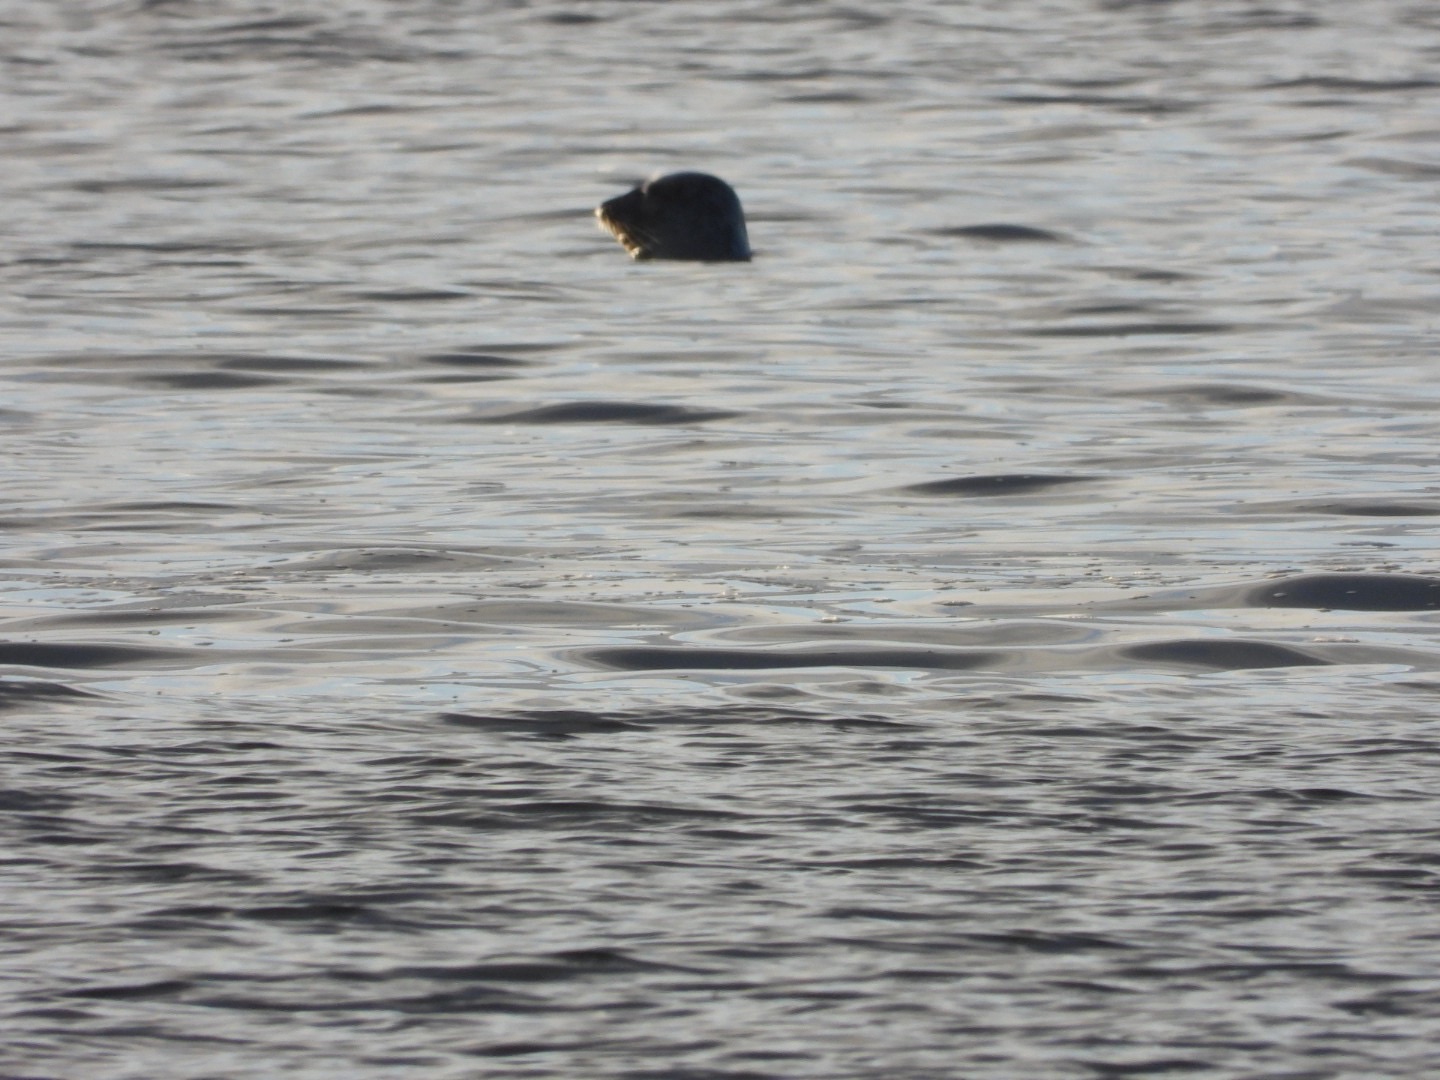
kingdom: Animalia
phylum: Chordata
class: Mammalia
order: Carnivora
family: Phocidae
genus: Phoca
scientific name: Phoca vitulina
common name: Spættet sæl
